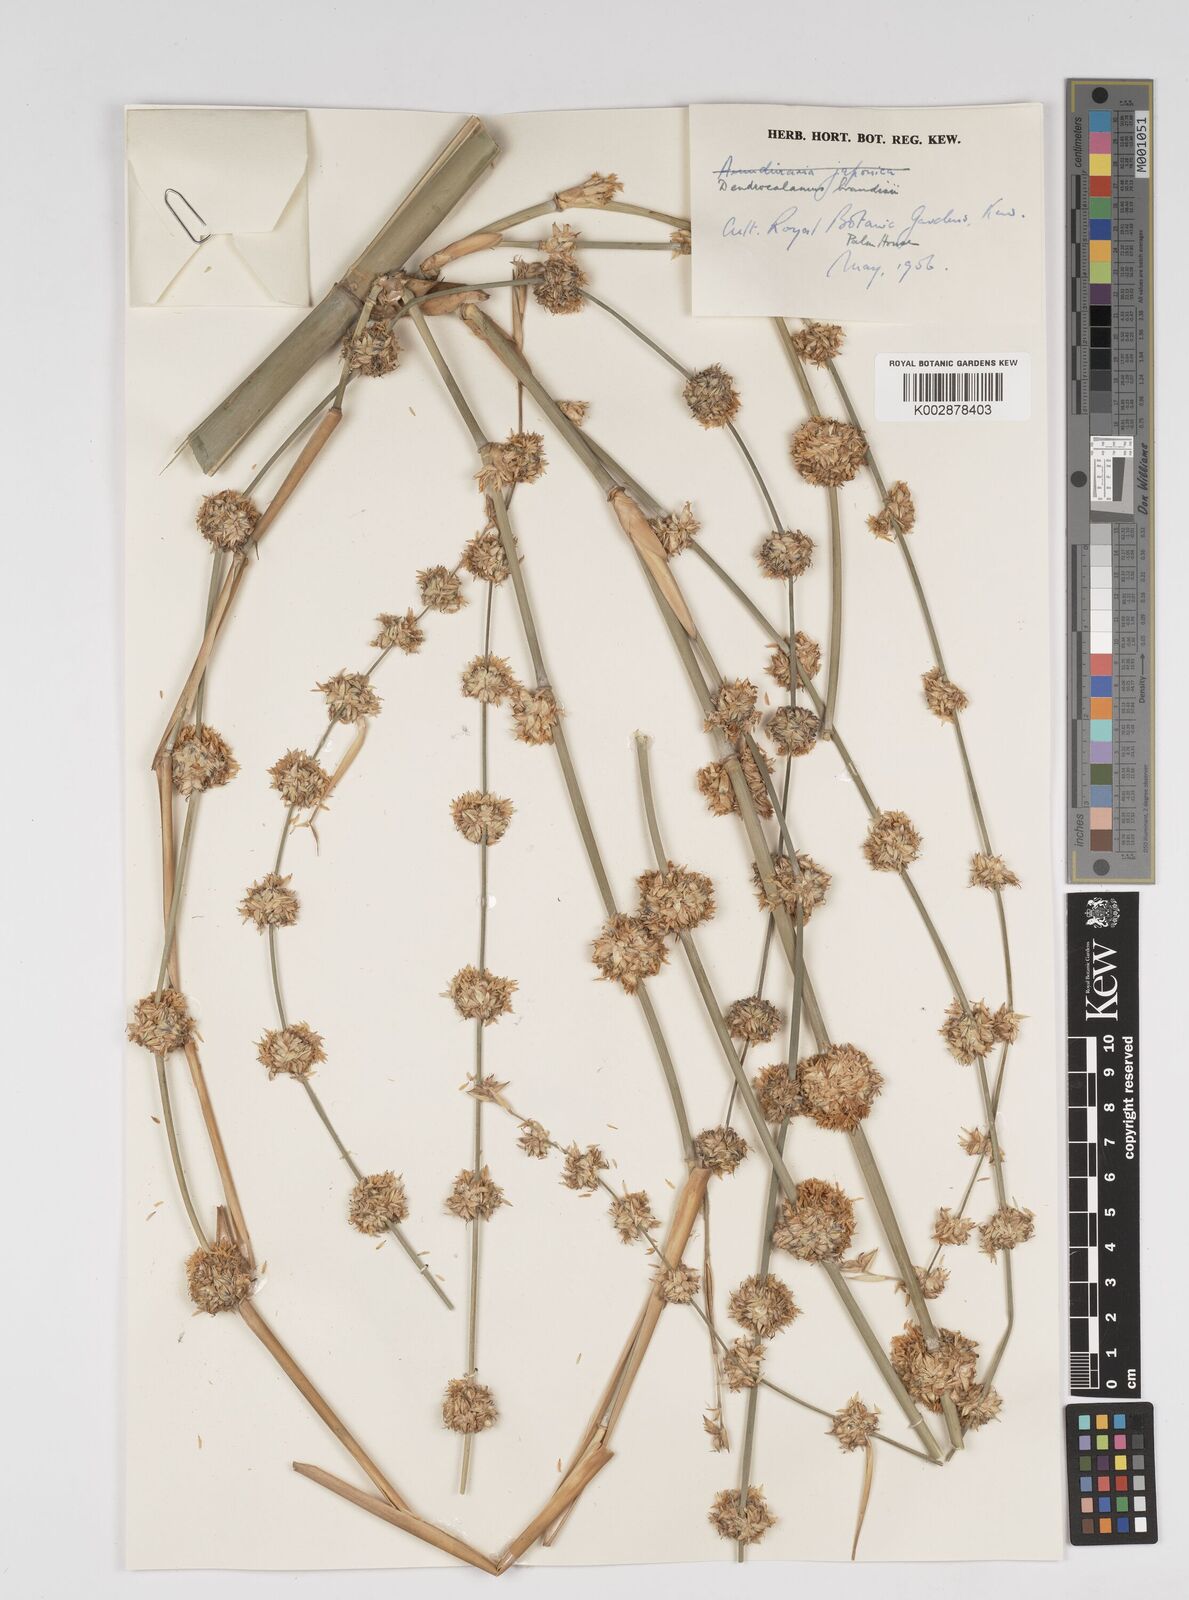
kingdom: Plantae
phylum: Tracheophyta
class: Liliopsida
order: Poales
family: Poaceae
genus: Dendrocalamus
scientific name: Dendrocalamus brandisii
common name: Velvetleaf bamboo
